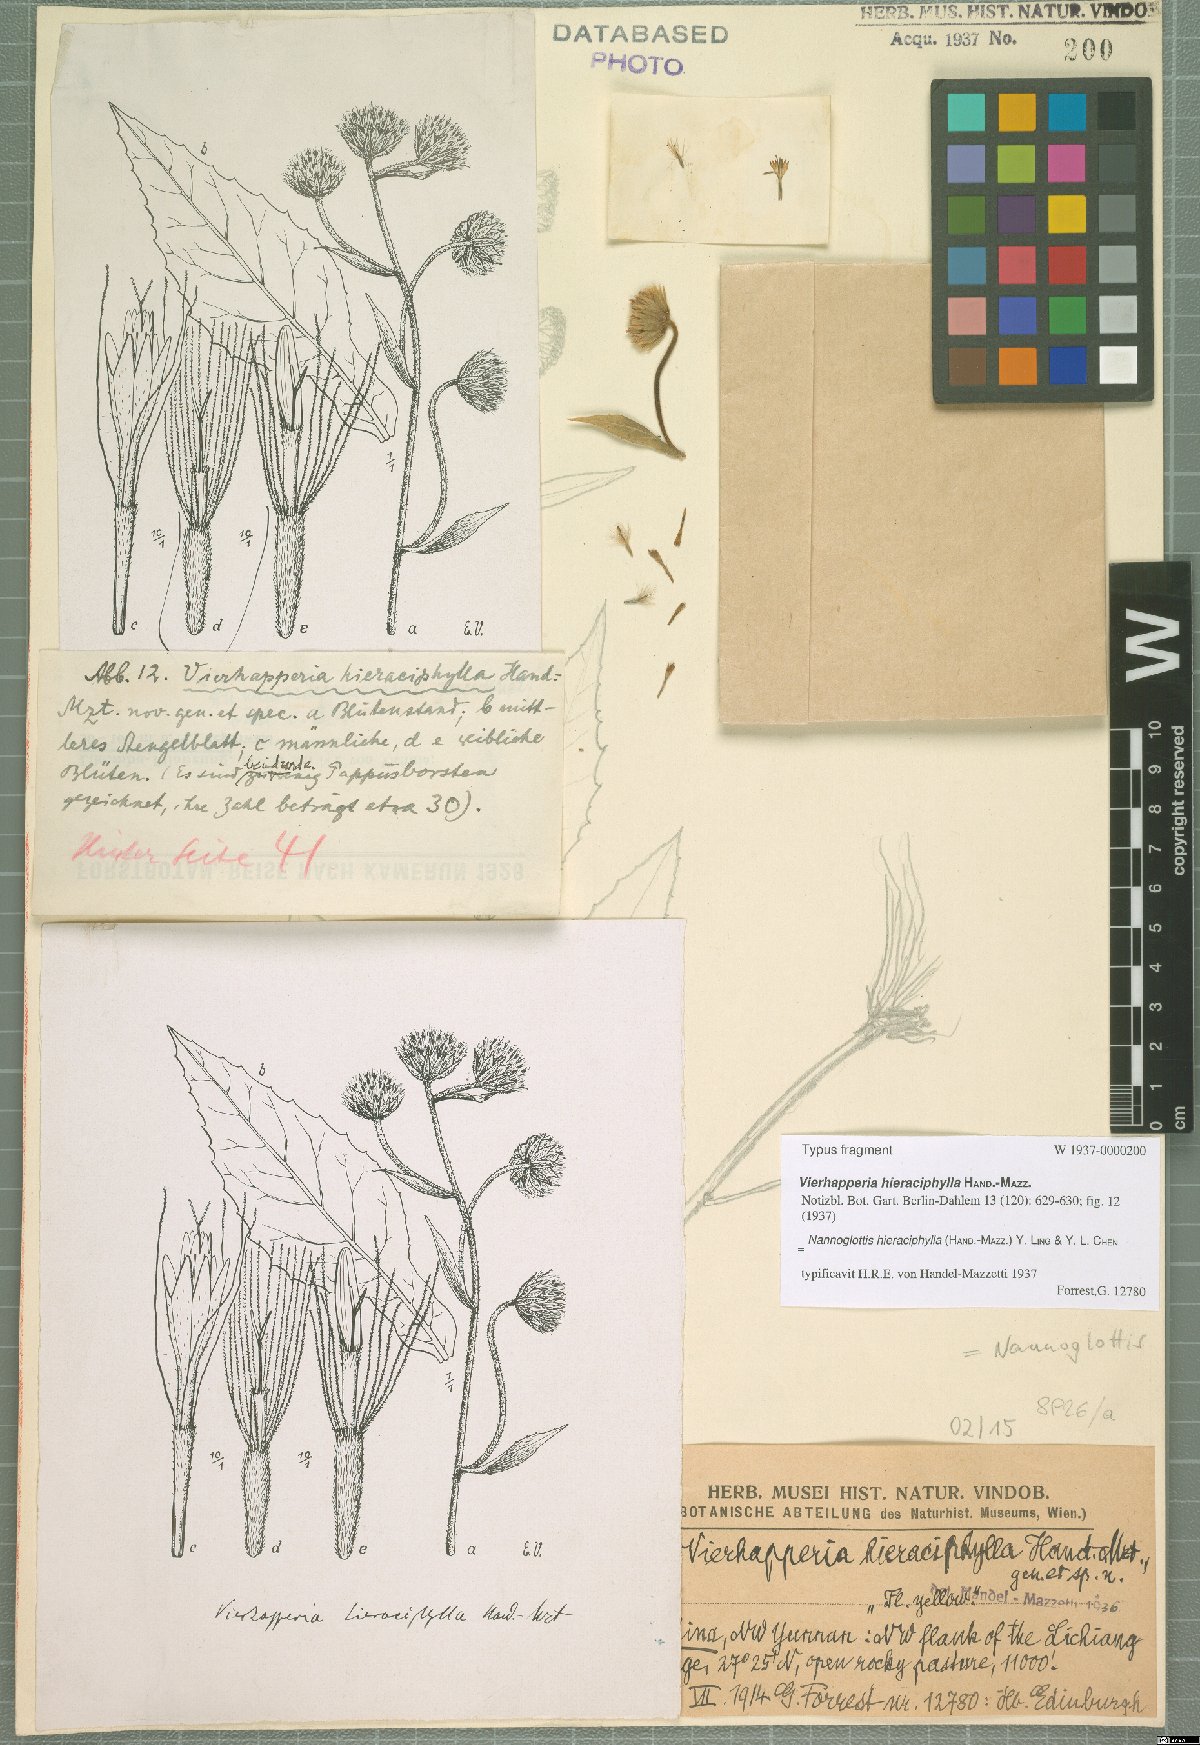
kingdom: Plantae
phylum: Tracheophyta
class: Magnoliopsida
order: Asterales
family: Asteraceae
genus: Nannoglottis
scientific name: Nannoglottis hieraciphylla
